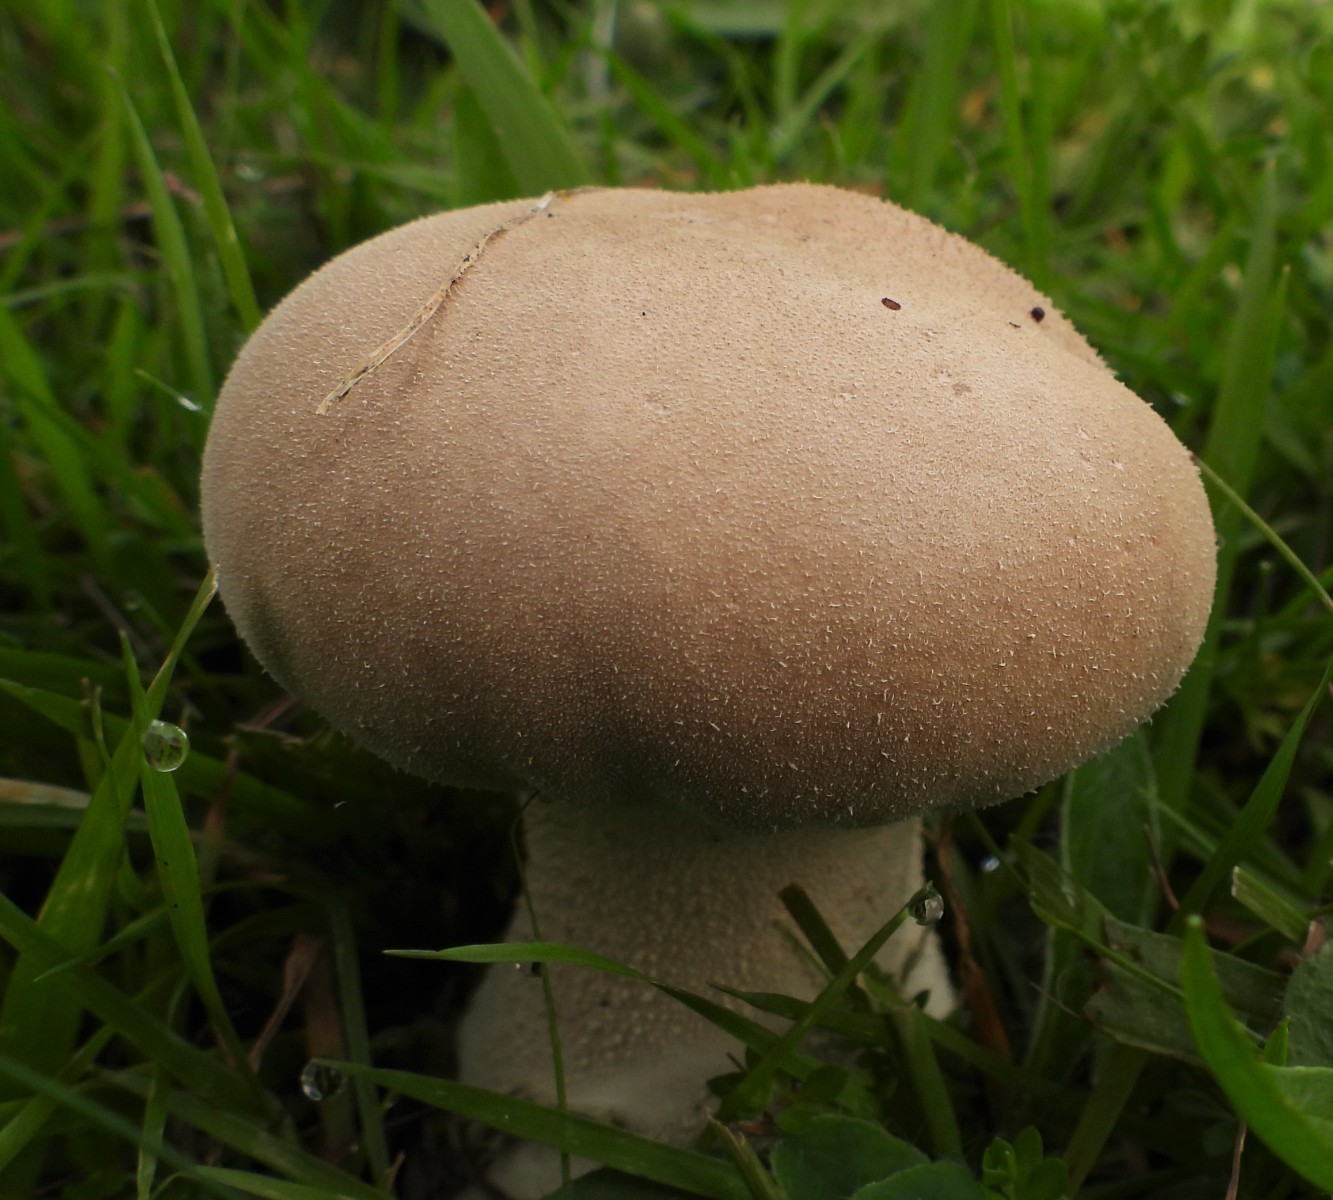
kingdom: Fungi
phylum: Basidiomycota
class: Agaricomycetes
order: Agaricales
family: Lycoperdaceae
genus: Lycoperdon
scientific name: Lycoperdon excipuliforme
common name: højstokket støvbold
